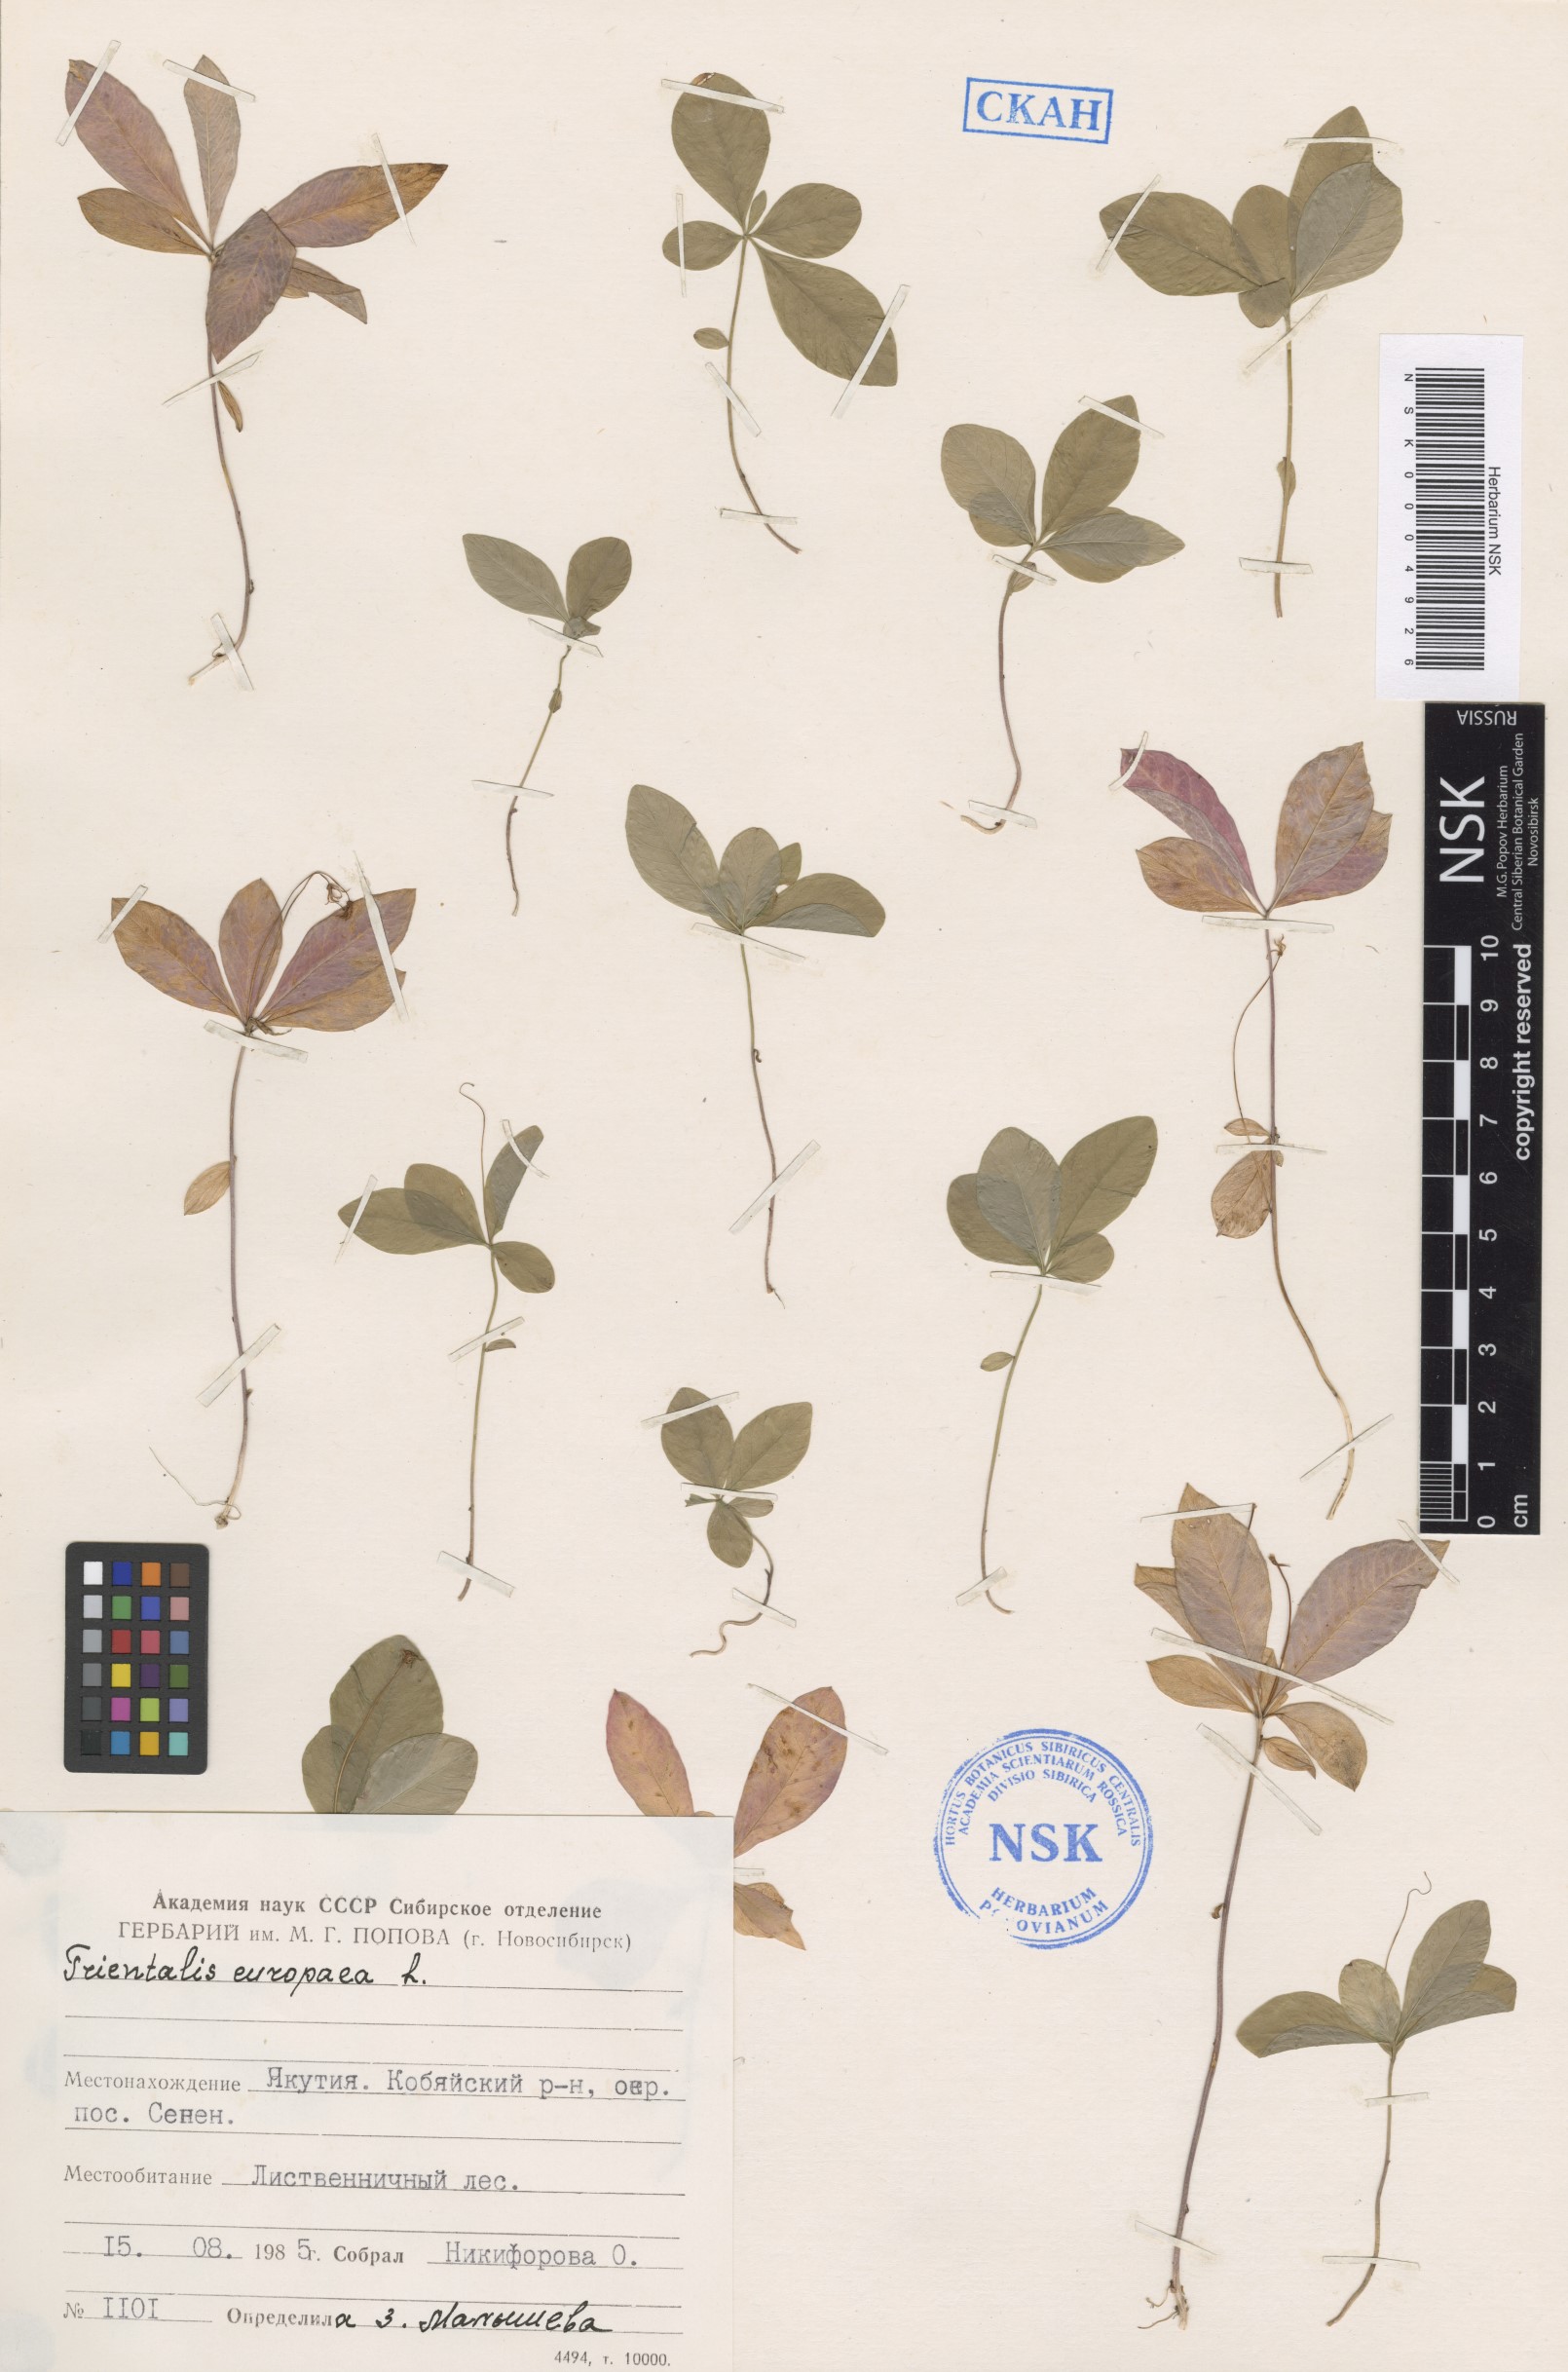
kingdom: Plantae
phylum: Tracheophyta
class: Magnoliopsida
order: Ericales
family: Primulaceae
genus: Lysimachia
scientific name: Lysimachia europaea
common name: Arctic starflower
